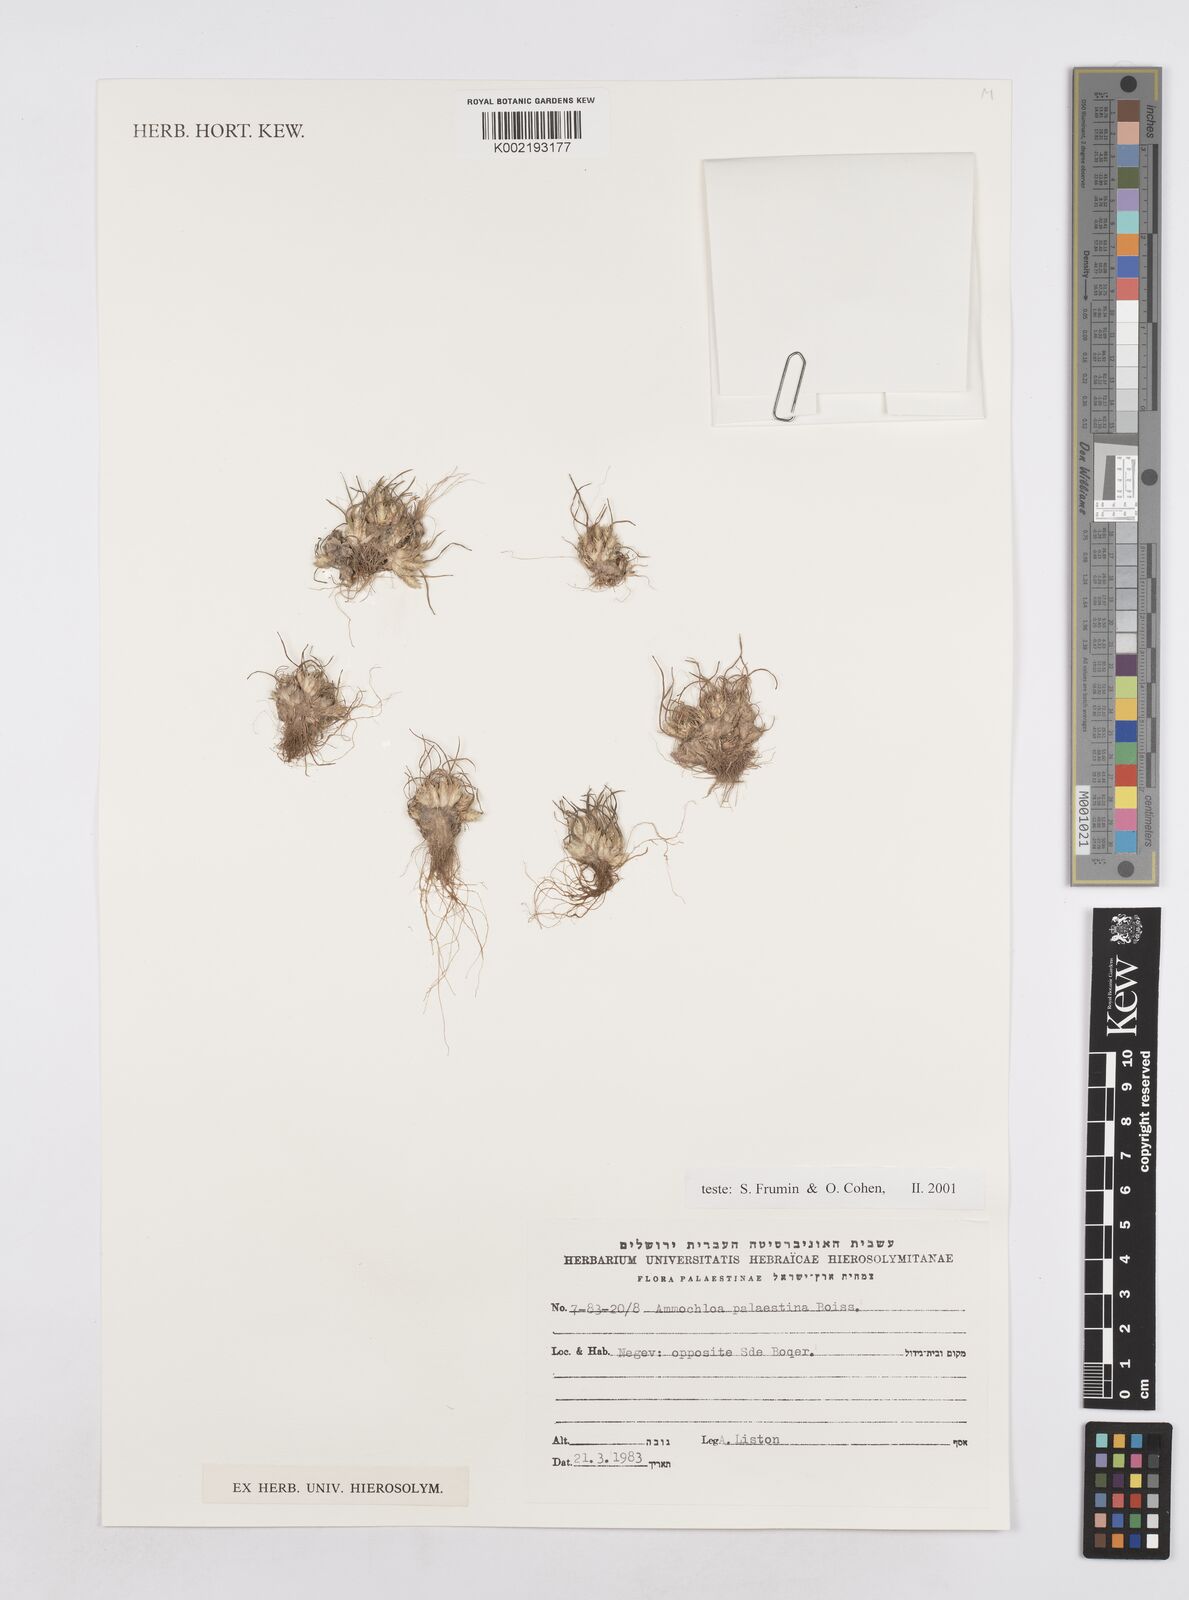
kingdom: Plantae
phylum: Tracheophyta
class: Liliopsida
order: Poales
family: Poaceae
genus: Ammochloa
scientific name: Ammochloa palaestina
